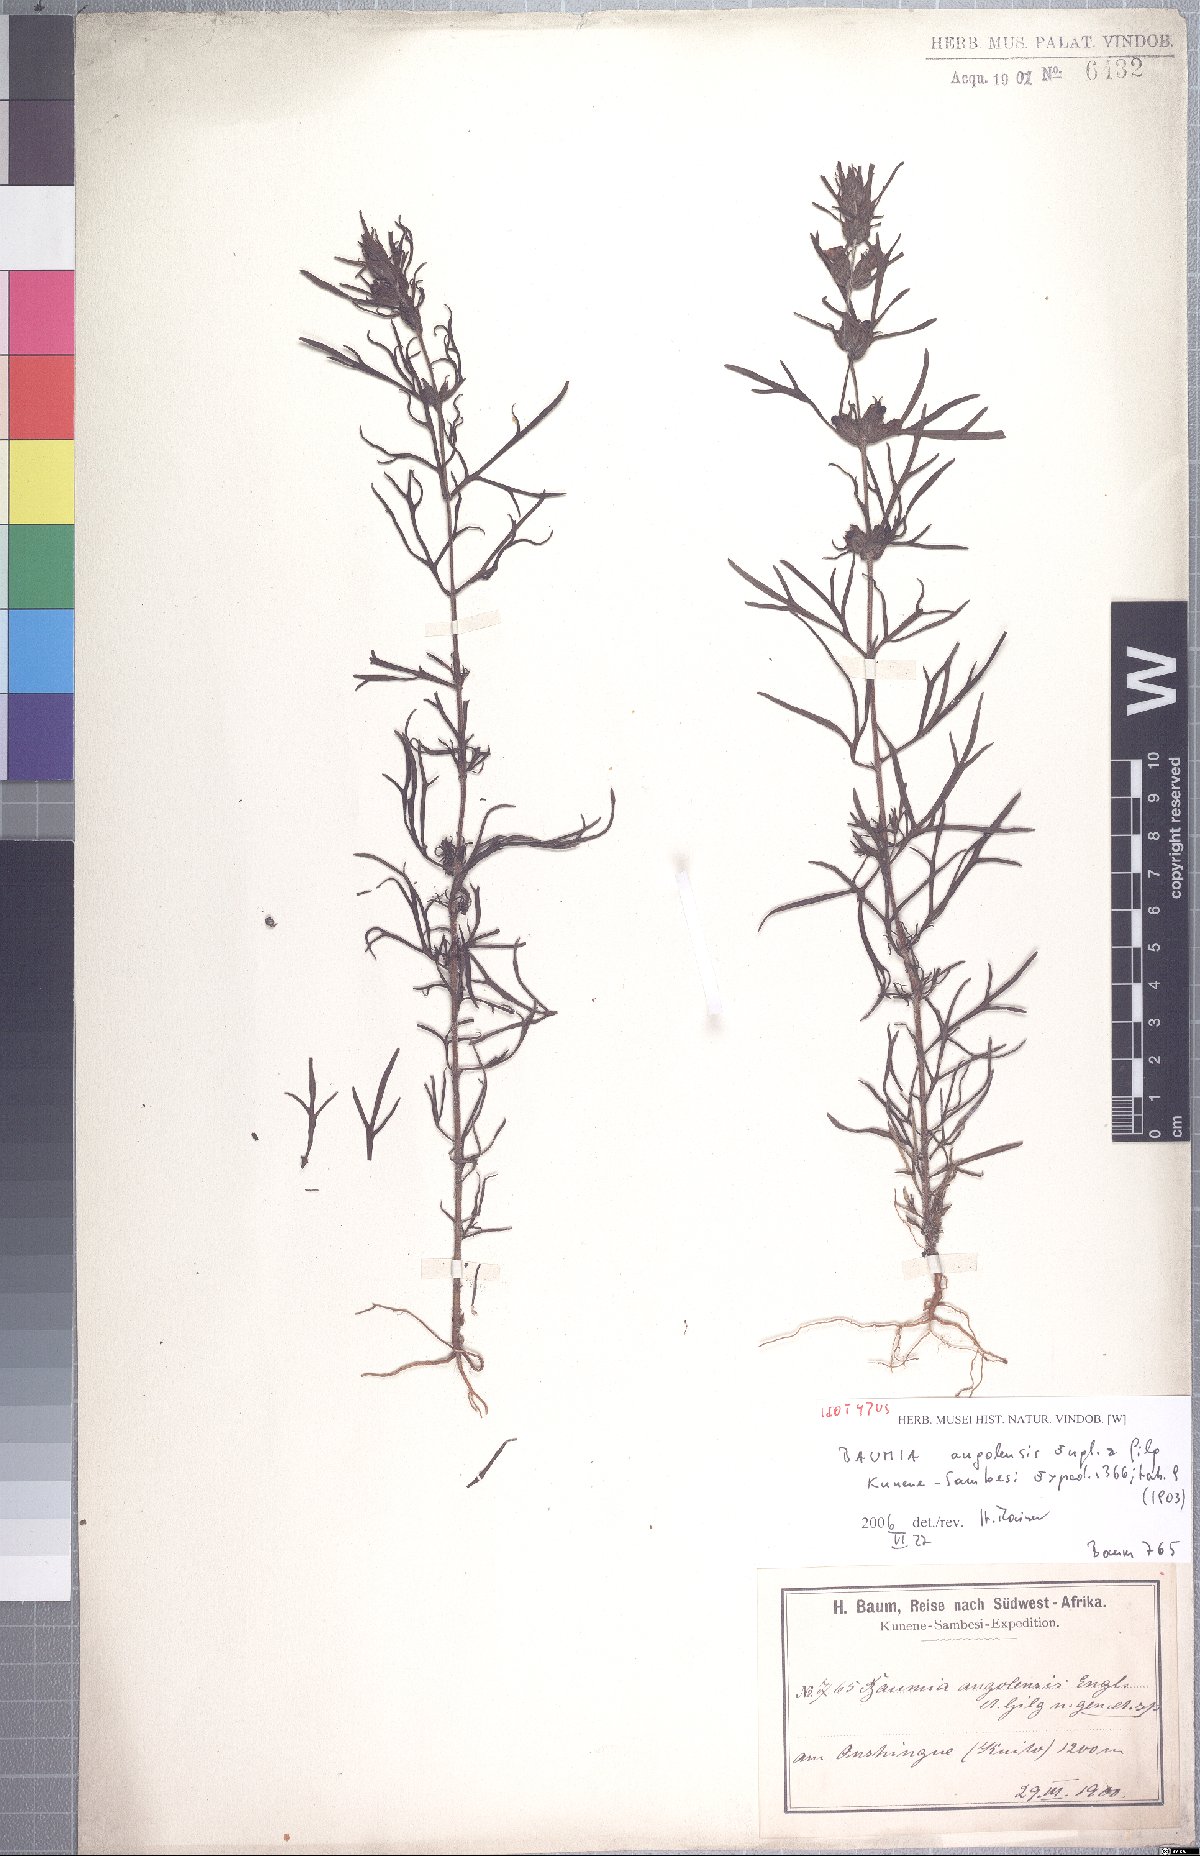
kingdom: Plantae
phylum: Tracheophyta
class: Magnoliopsida
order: Lamiales
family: Orobanchaceae
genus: Baumia
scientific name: Baumia angolensis
